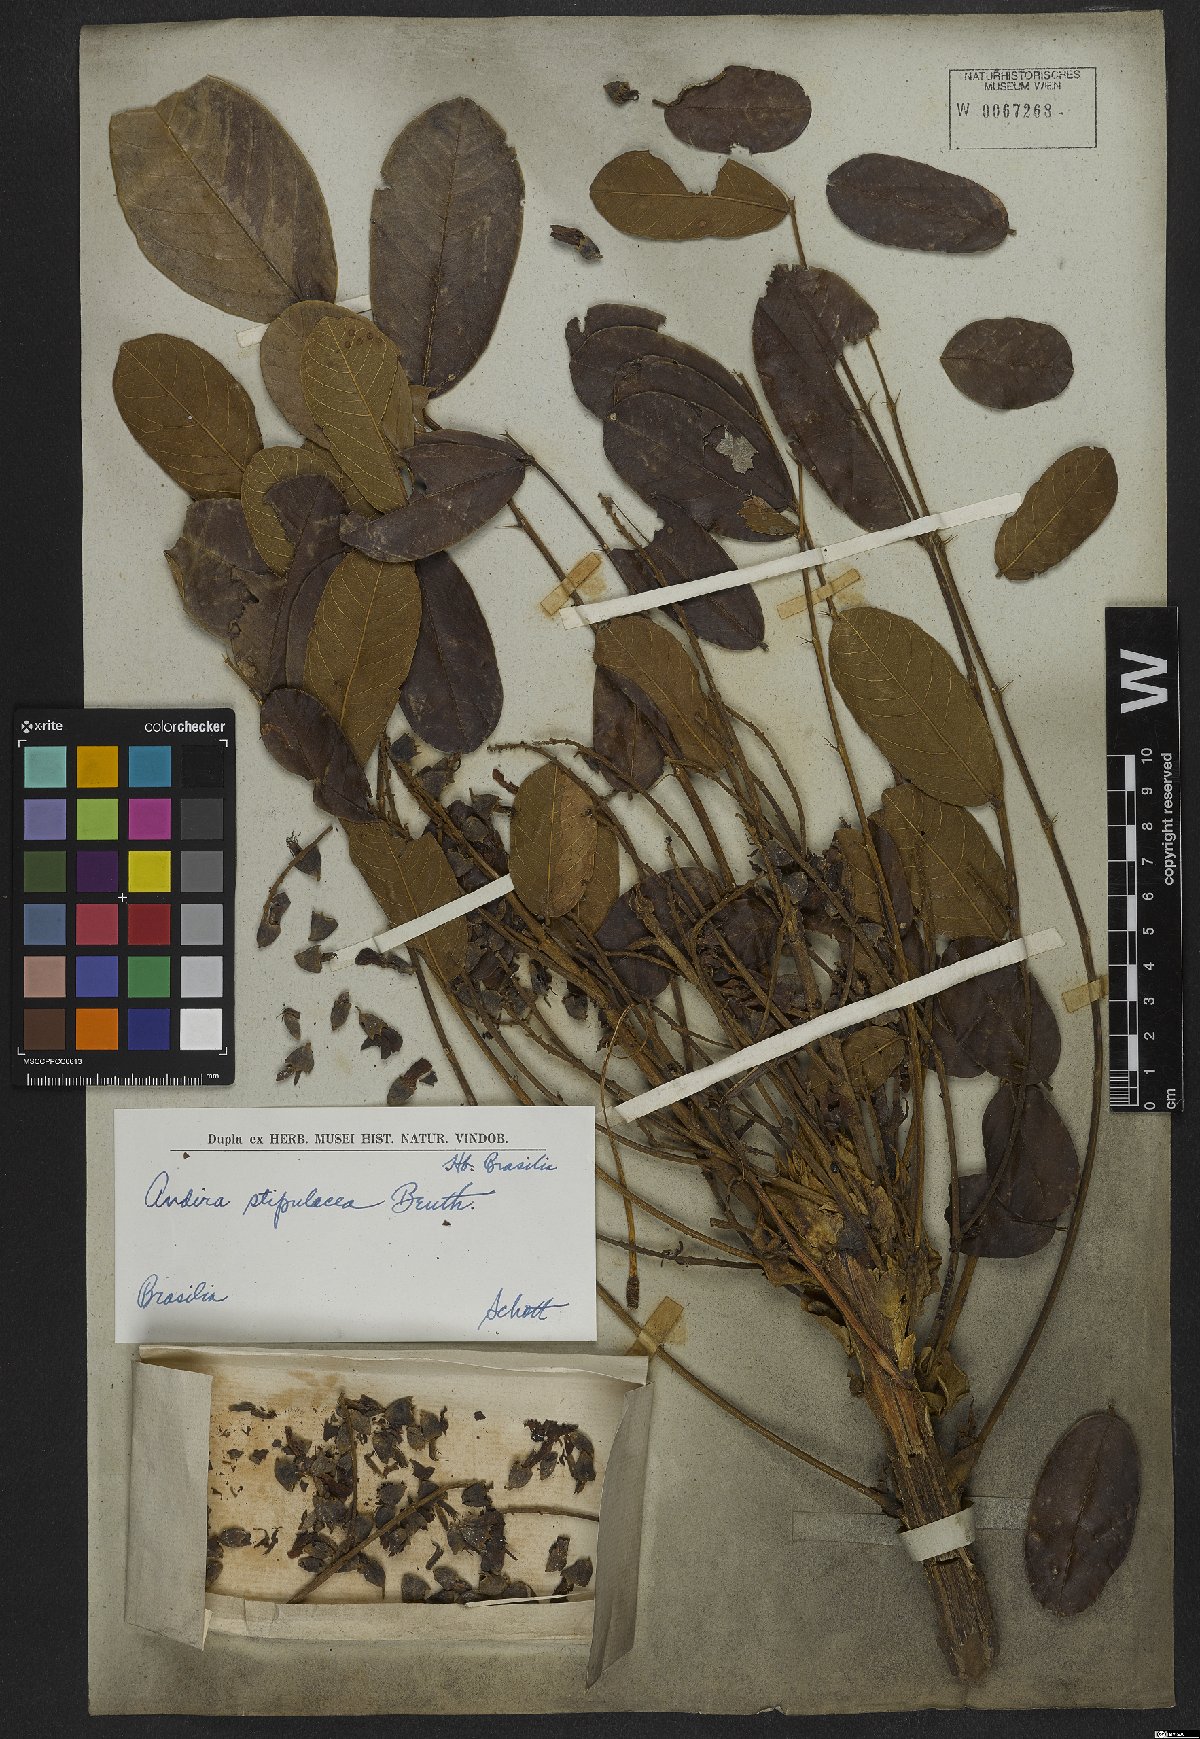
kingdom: Plantae
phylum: Tracheophyta
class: Magnoliopsida
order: Fabales
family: Fabaceae
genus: Andira
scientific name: Andira legalis
